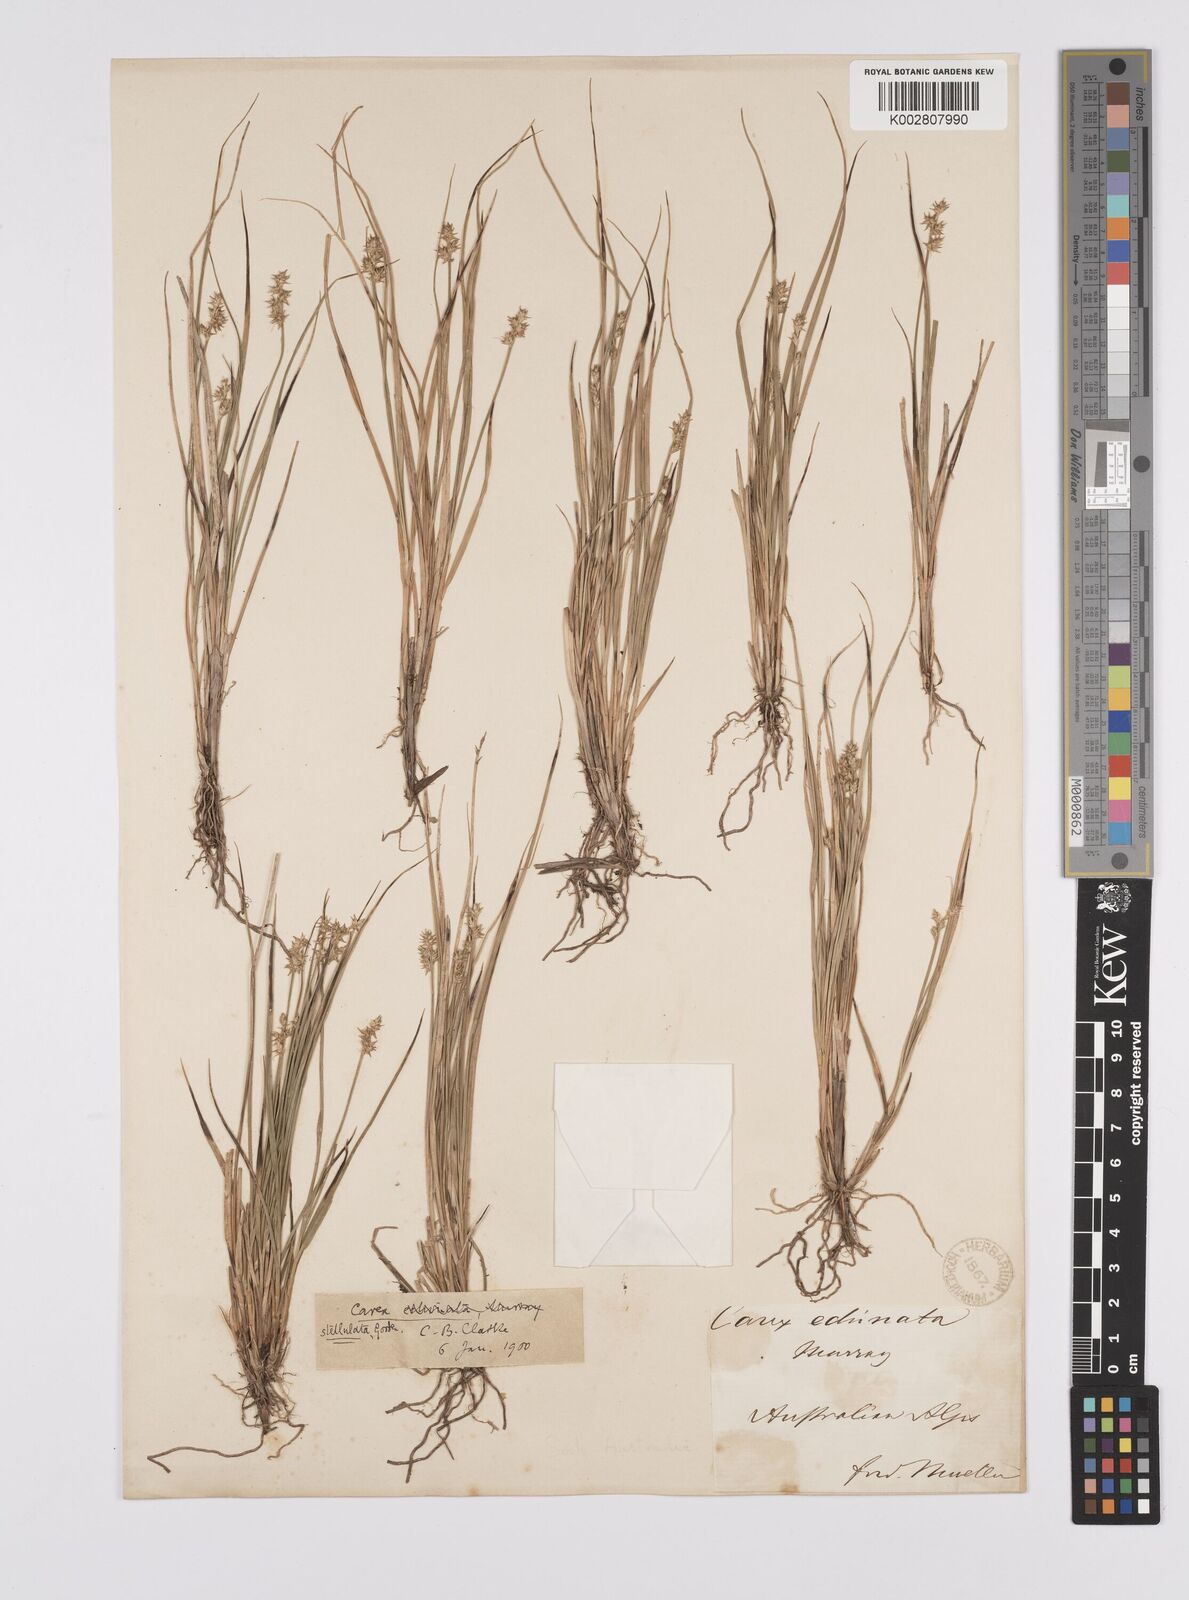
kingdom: Plantae
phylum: Tracheophyta
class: Liliopsida
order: Poales
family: Cyperaceae
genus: Carex
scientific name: Carex echinata
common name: Star sedge
